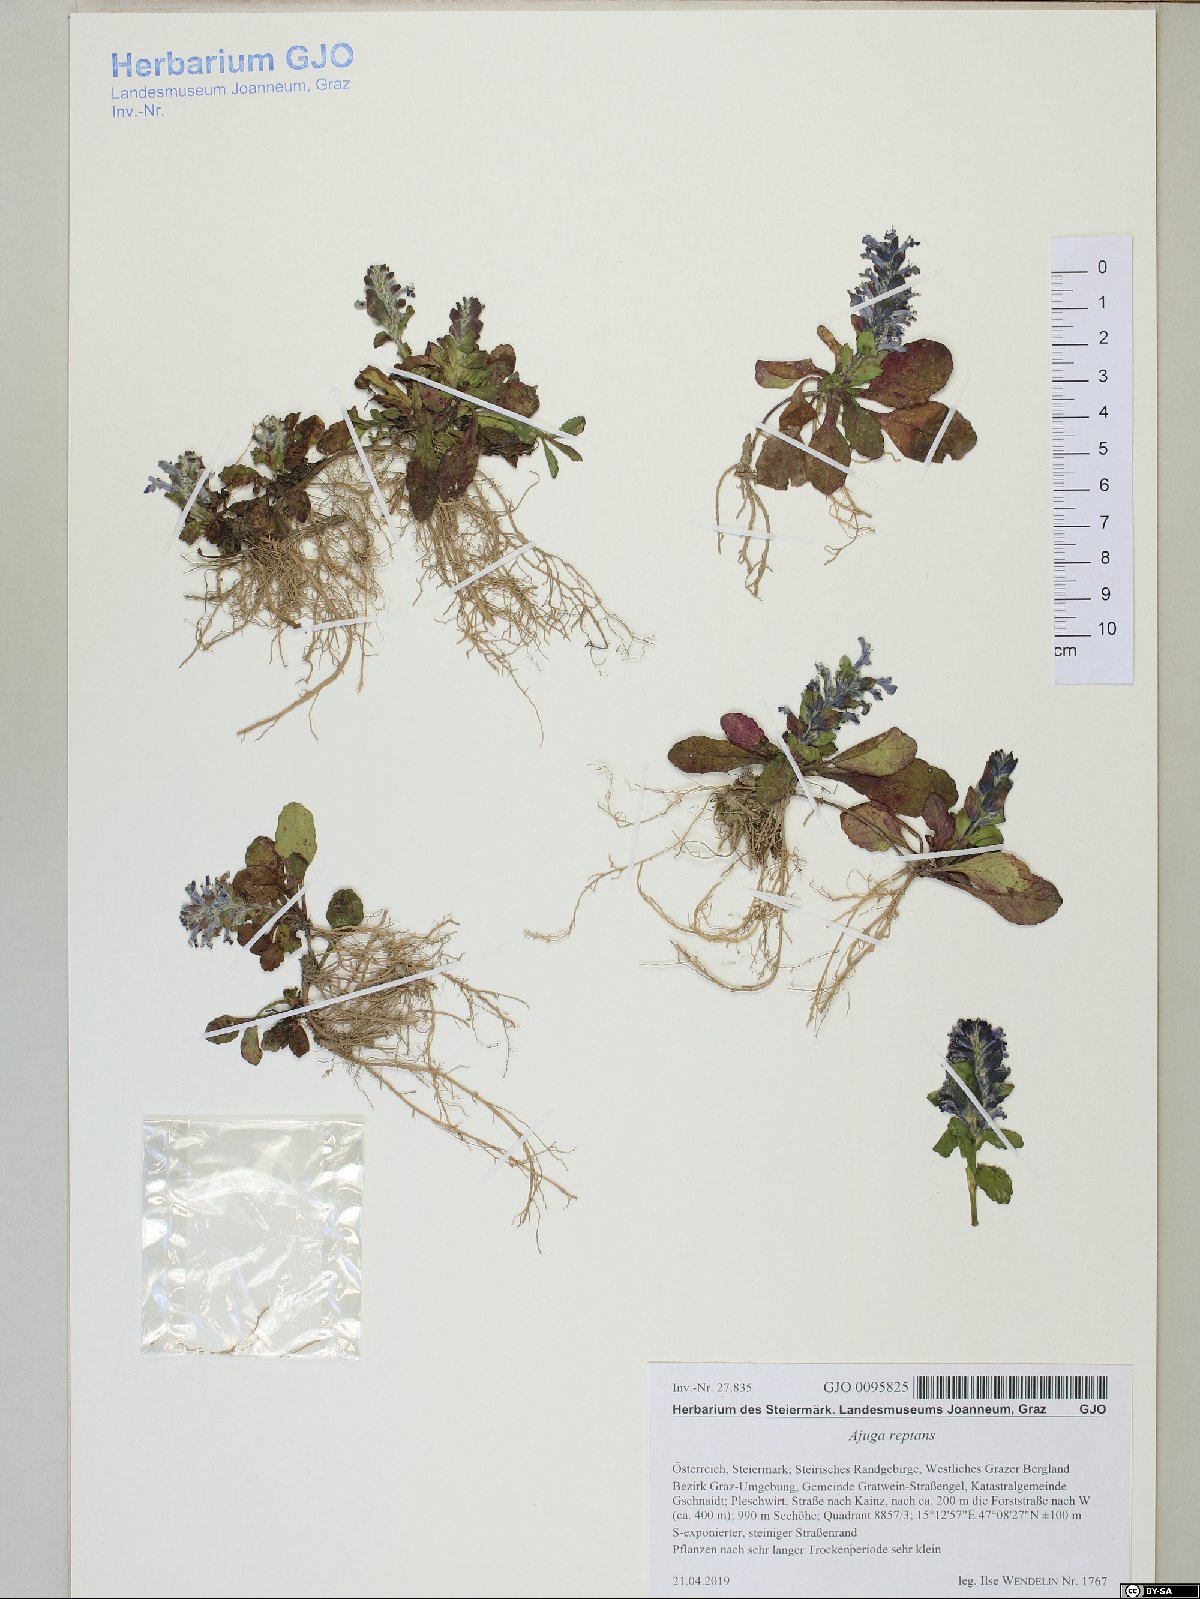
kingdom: Plantae
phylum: Tracheophyta
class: Magnoliopsida
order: Lamiales
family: Lamiaceae
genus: Ajuga
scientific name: Ajuga reptans
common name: Bugle
